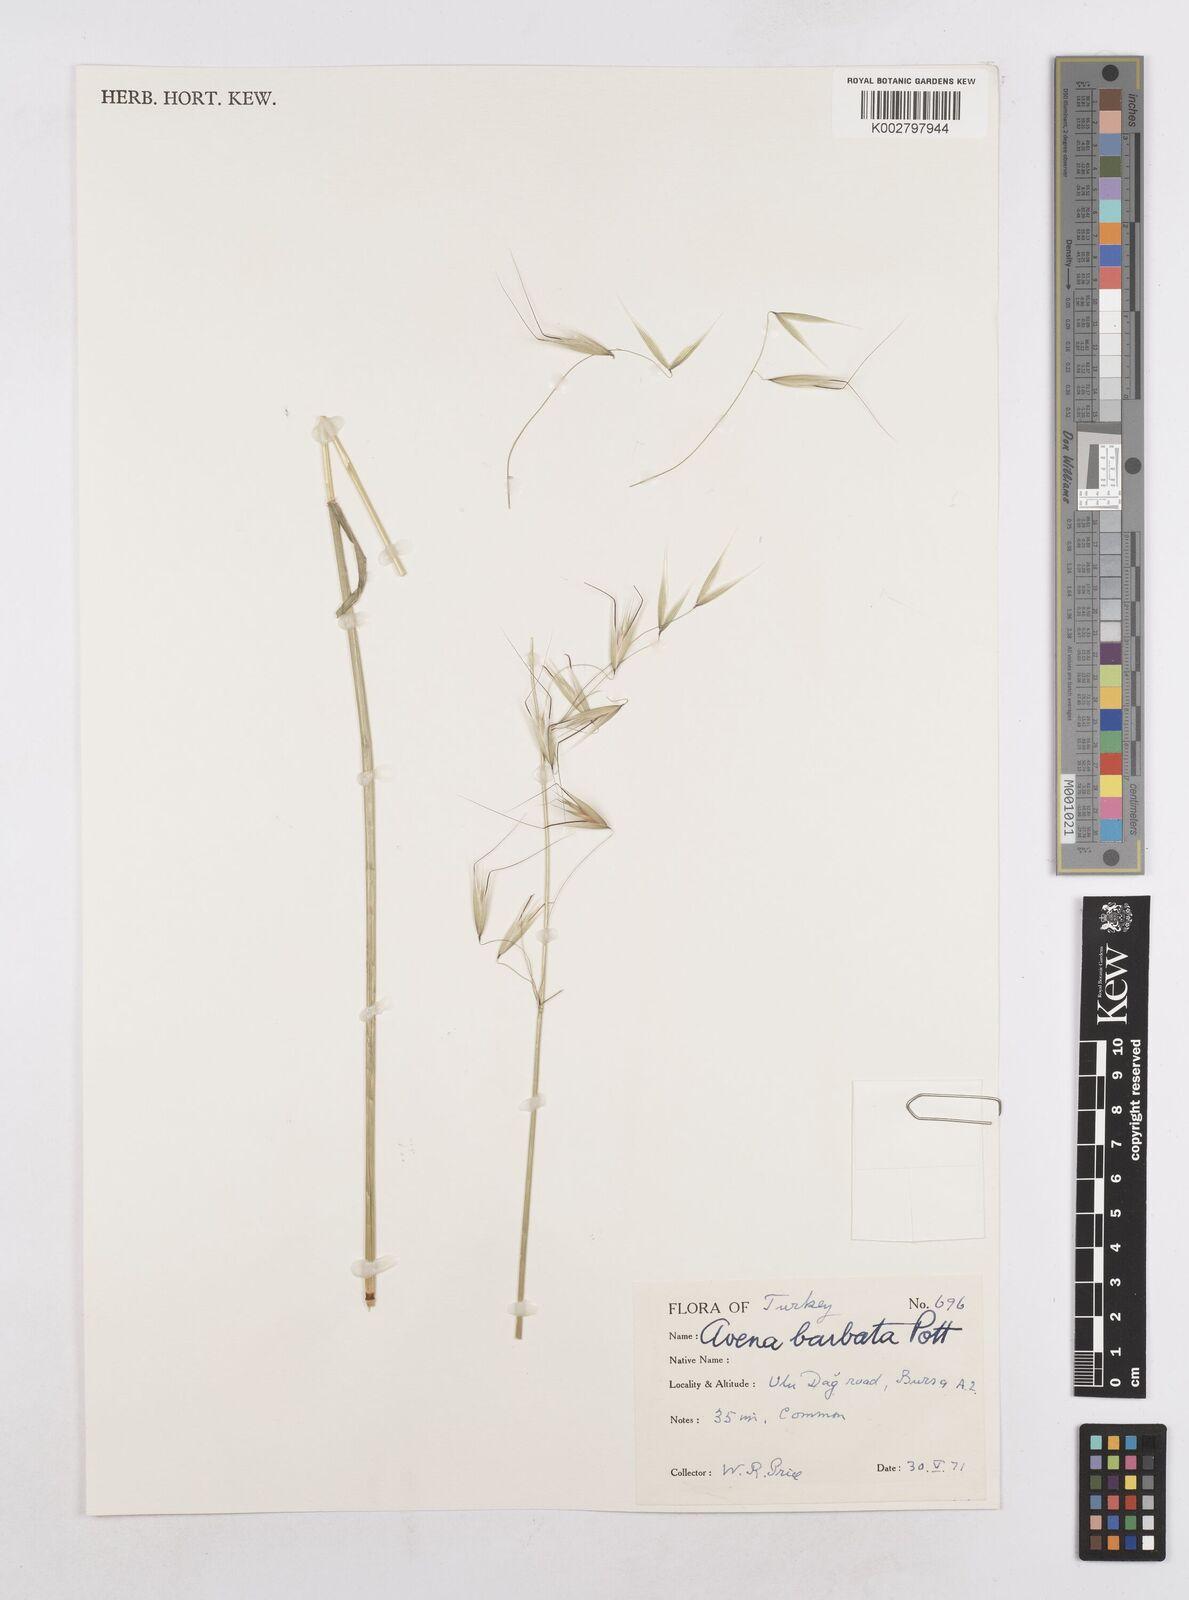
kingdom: Plantae
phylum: Tracheophyta
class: Liliopsida
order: Poales
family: Poaceae
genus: Avena
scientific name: Avena
